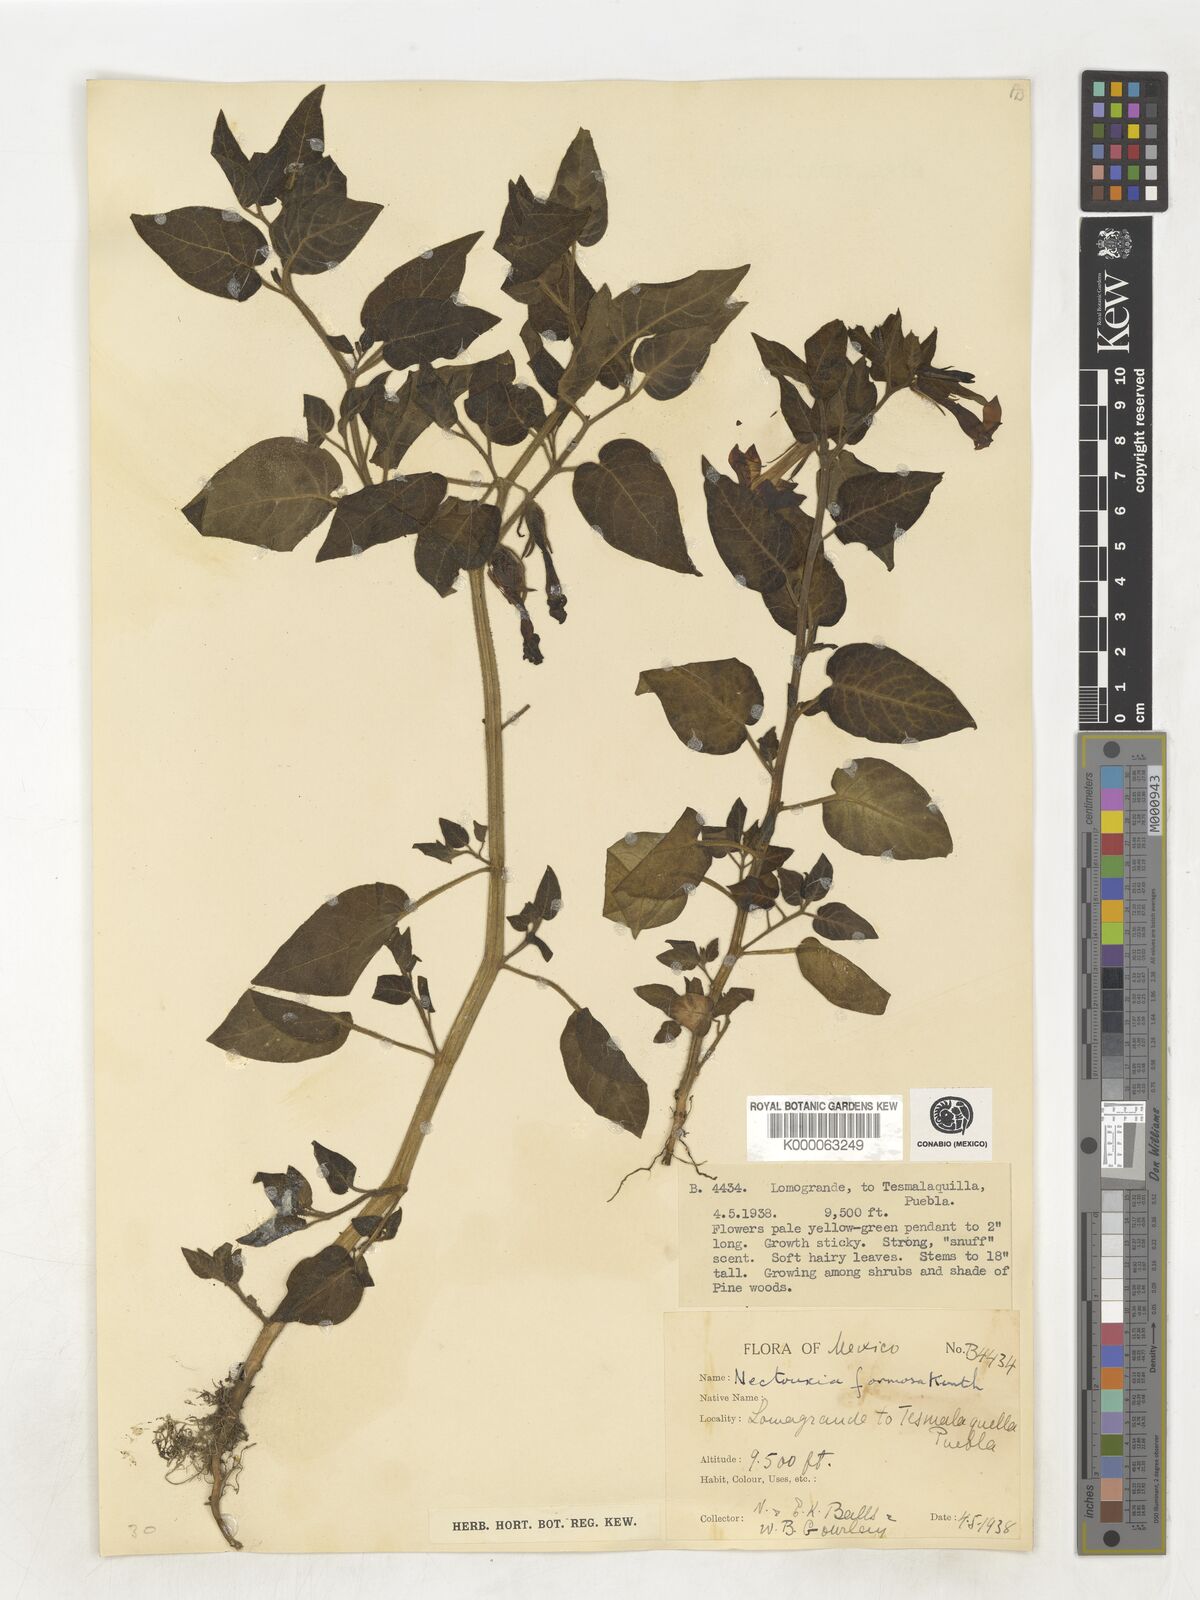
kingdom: Plantae
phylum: Tracheophyta
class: Magnoliopsida
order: Solanales
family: Solanaceae
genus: Nectouxia
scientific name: Nectouxia formosa
